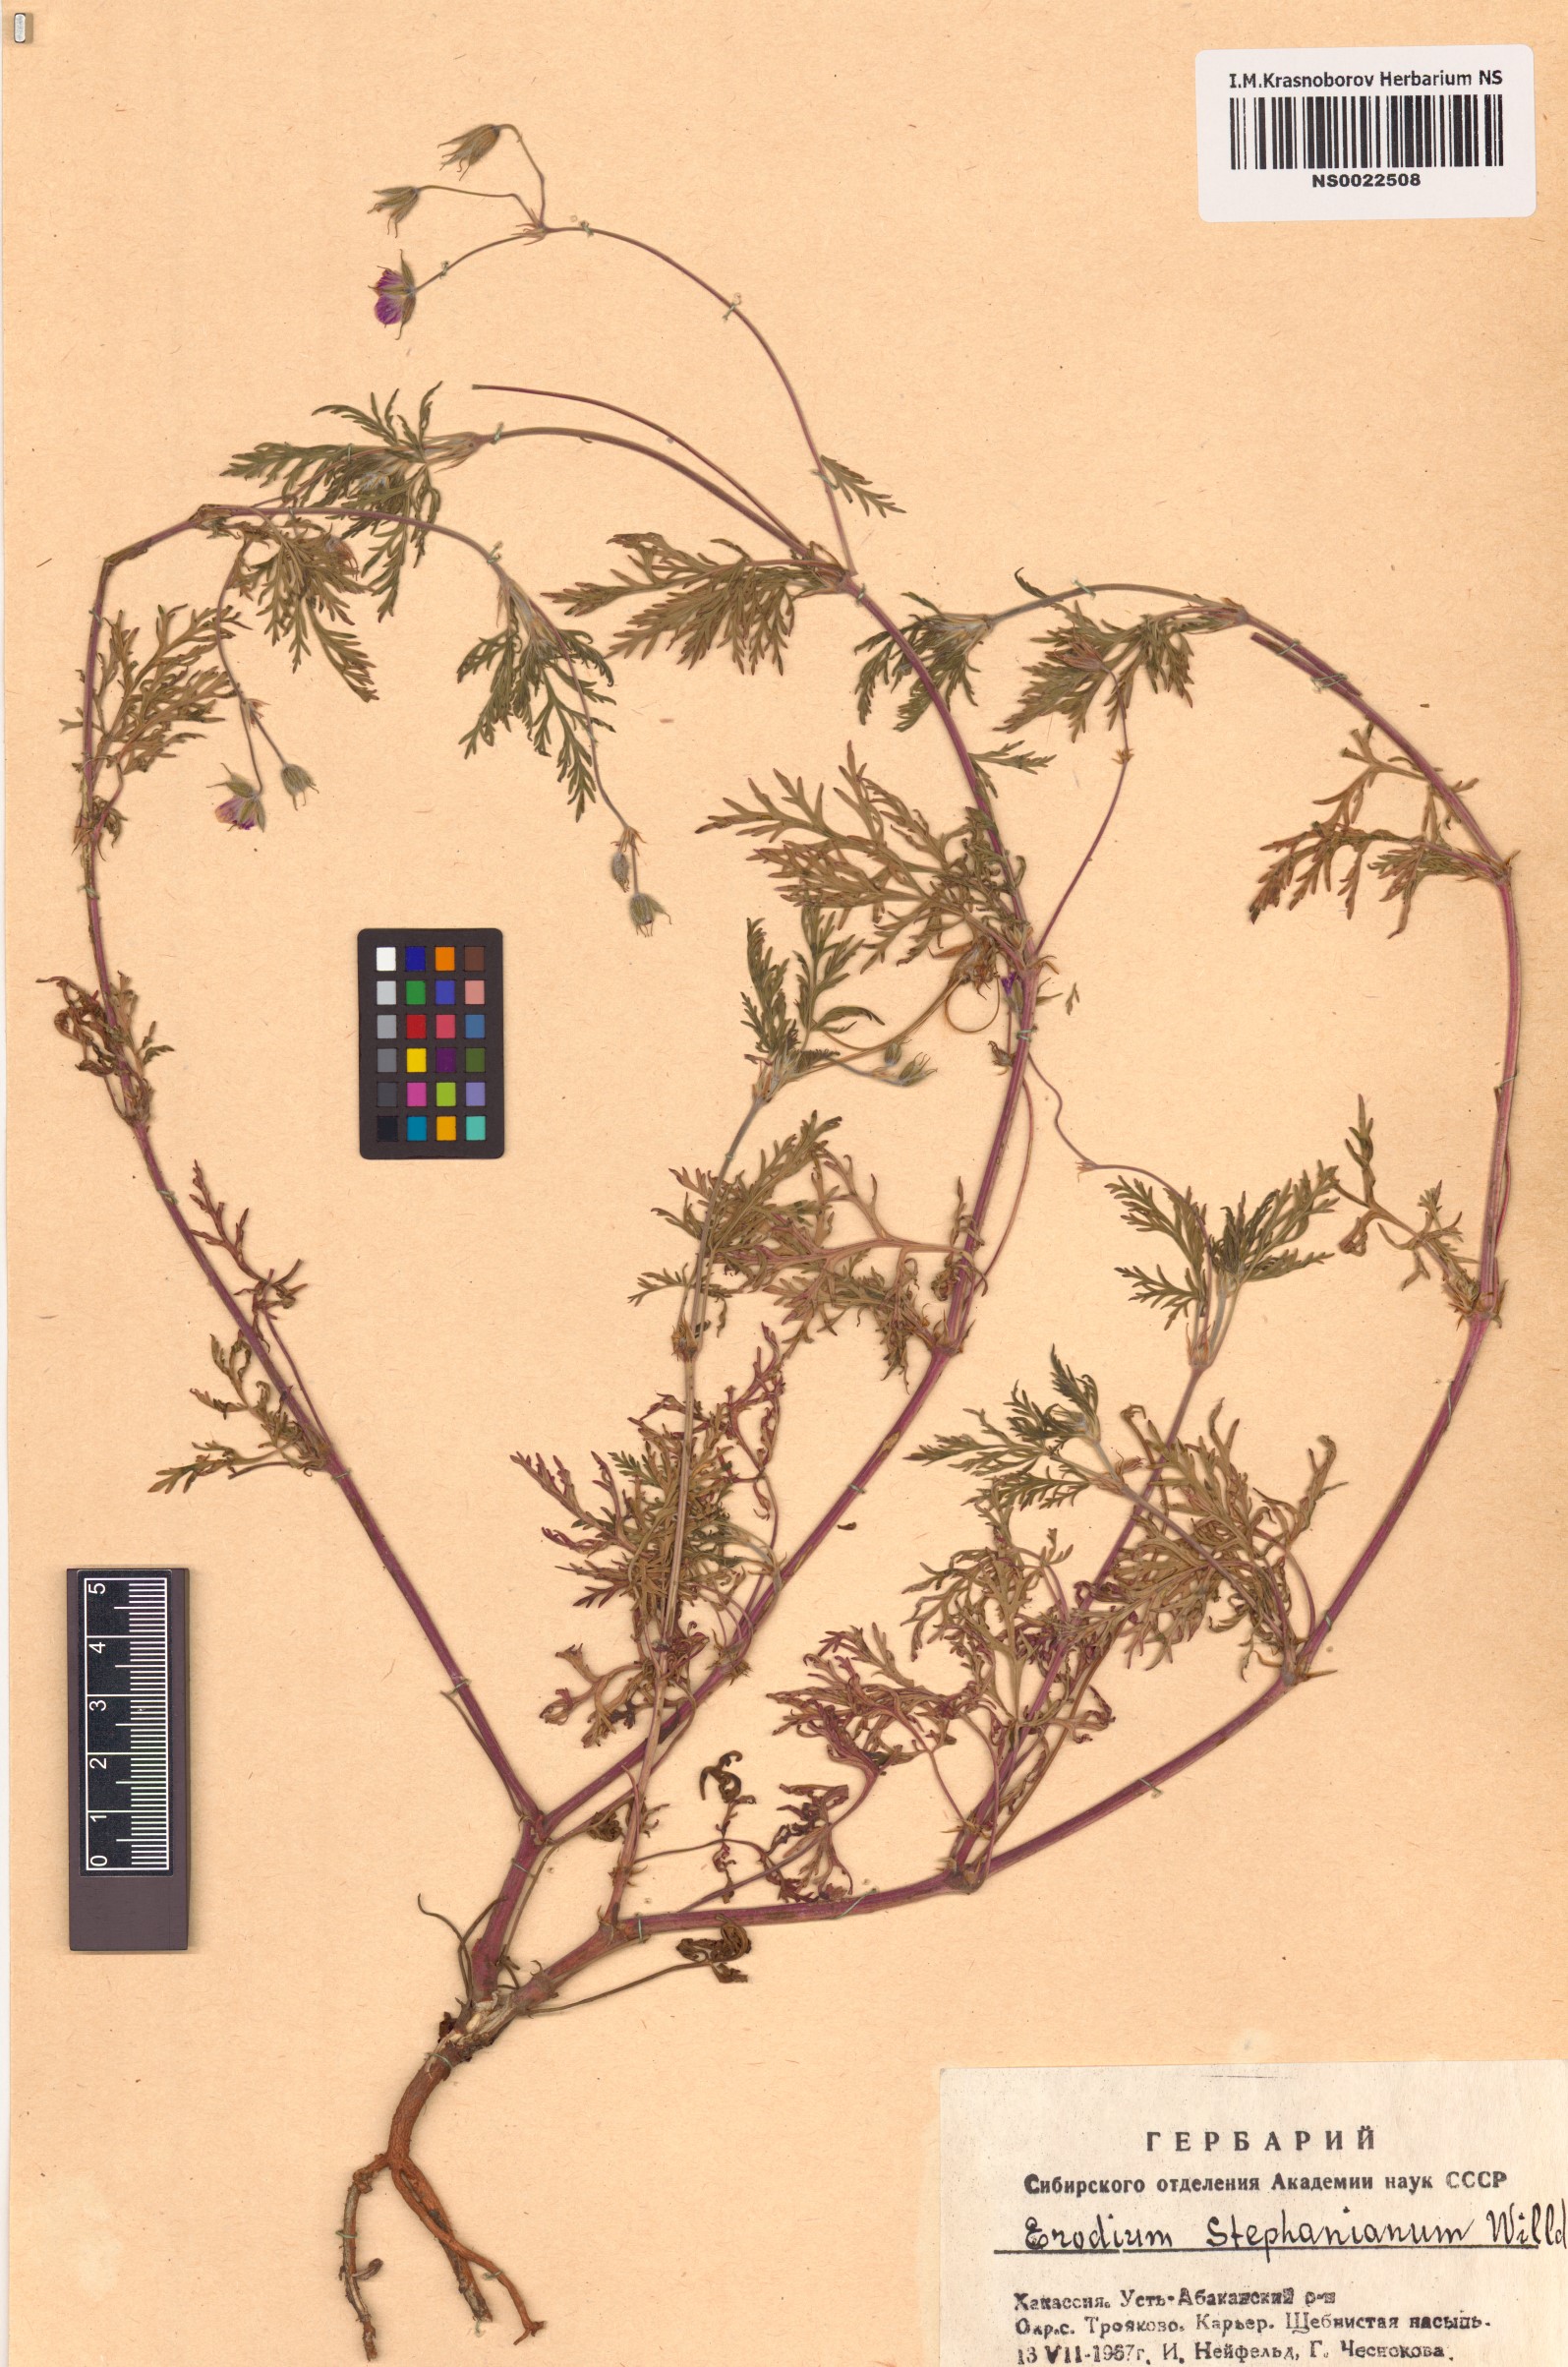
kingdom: Plantae
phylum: Tracheophyta
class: Magnoliopsida
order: Geraniales
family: Geraniaceae
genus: Erodium
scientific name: Erodium stephanianum
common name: Stephen's stork's bill
